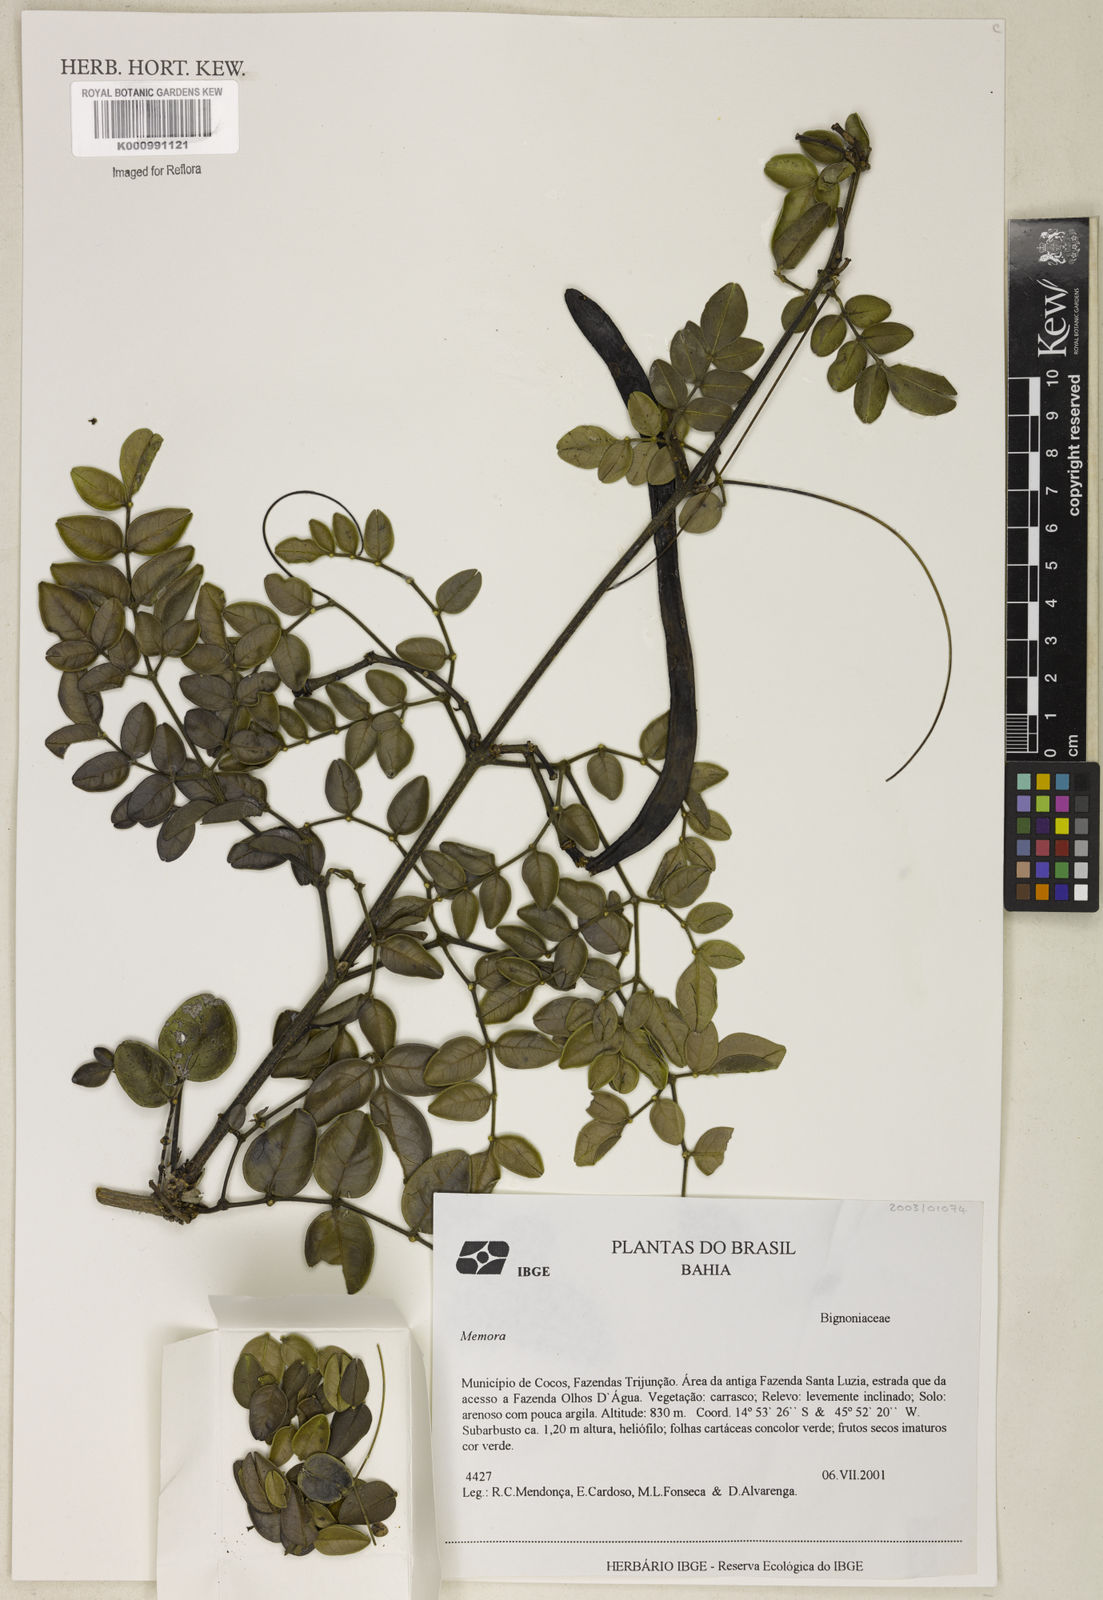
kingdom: Plantae
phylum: Tracheophyta
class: Magnoliopsida
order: Lamiales
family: Bignoniaceae
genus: Adenocalymma
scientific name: Adenocalymma nodosum
